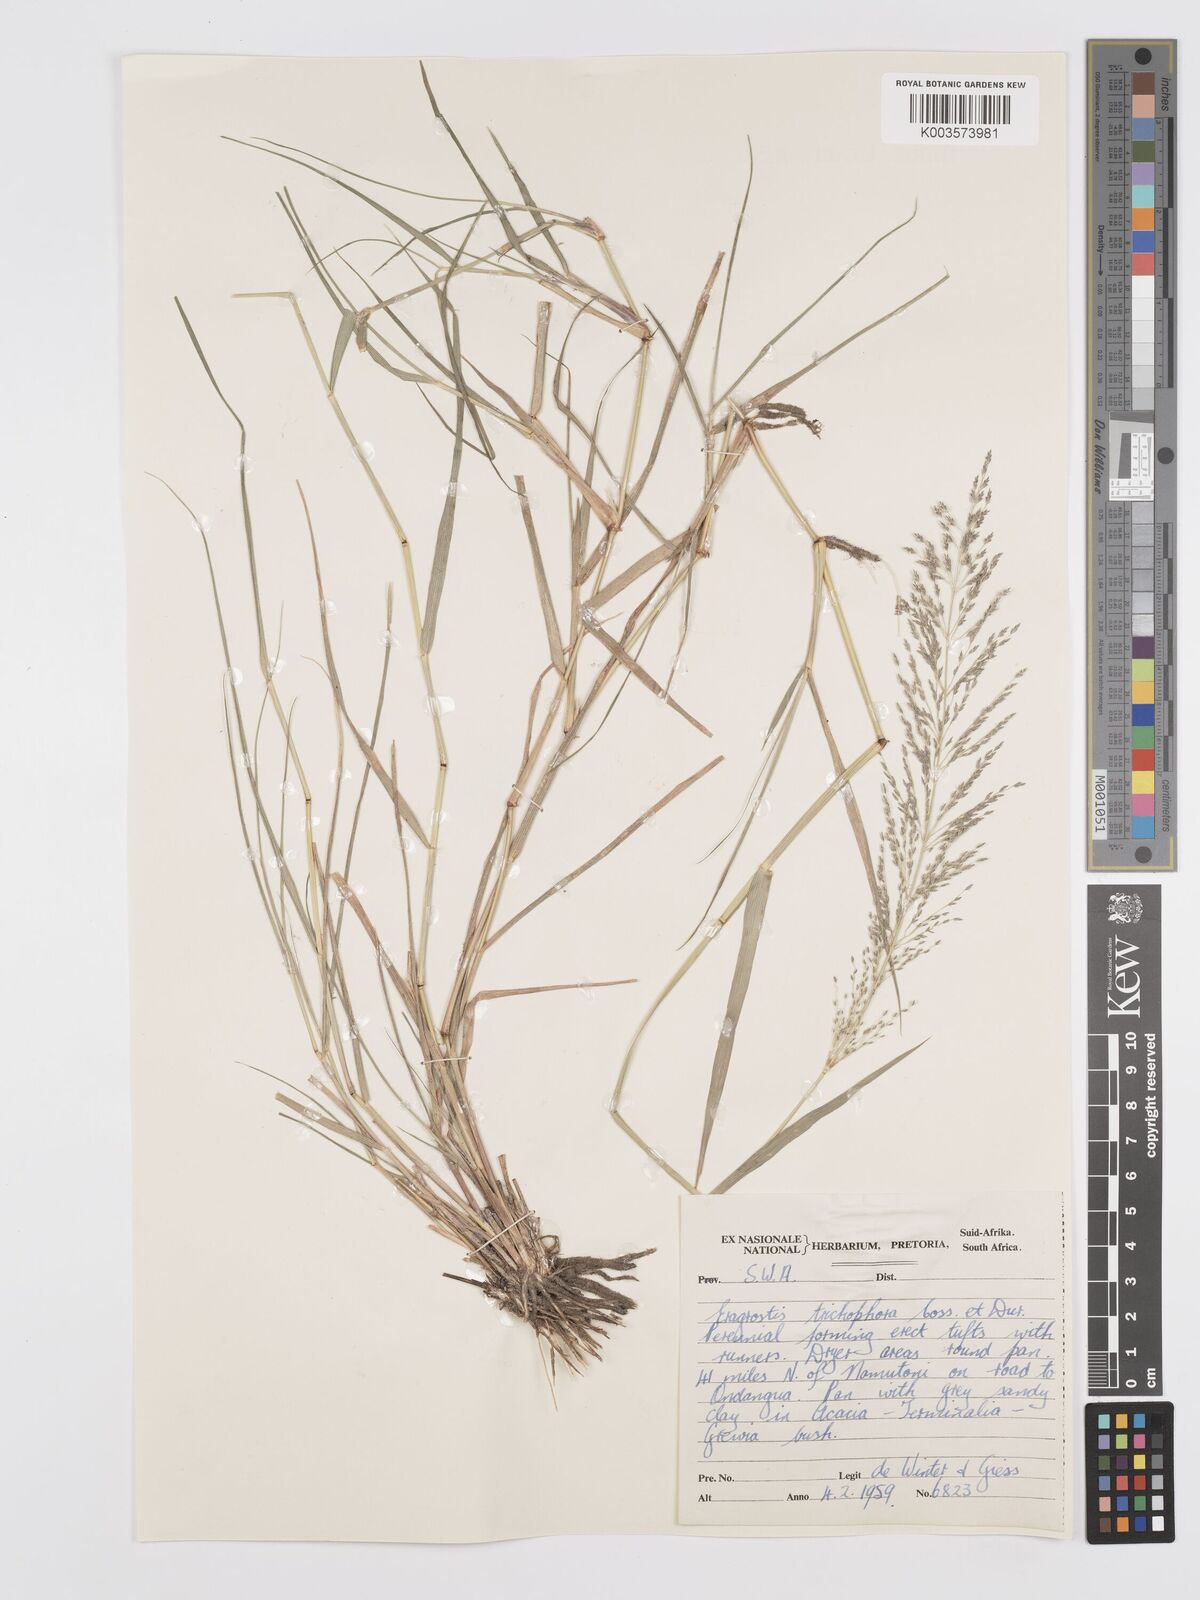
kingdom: Plantae
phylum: Tracheophyta
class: Liliopsida
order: Poales
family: Poaceae
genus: Eragrostis
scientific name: Eragrostis cylindriflora
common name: Cylinderflower lovegrass
